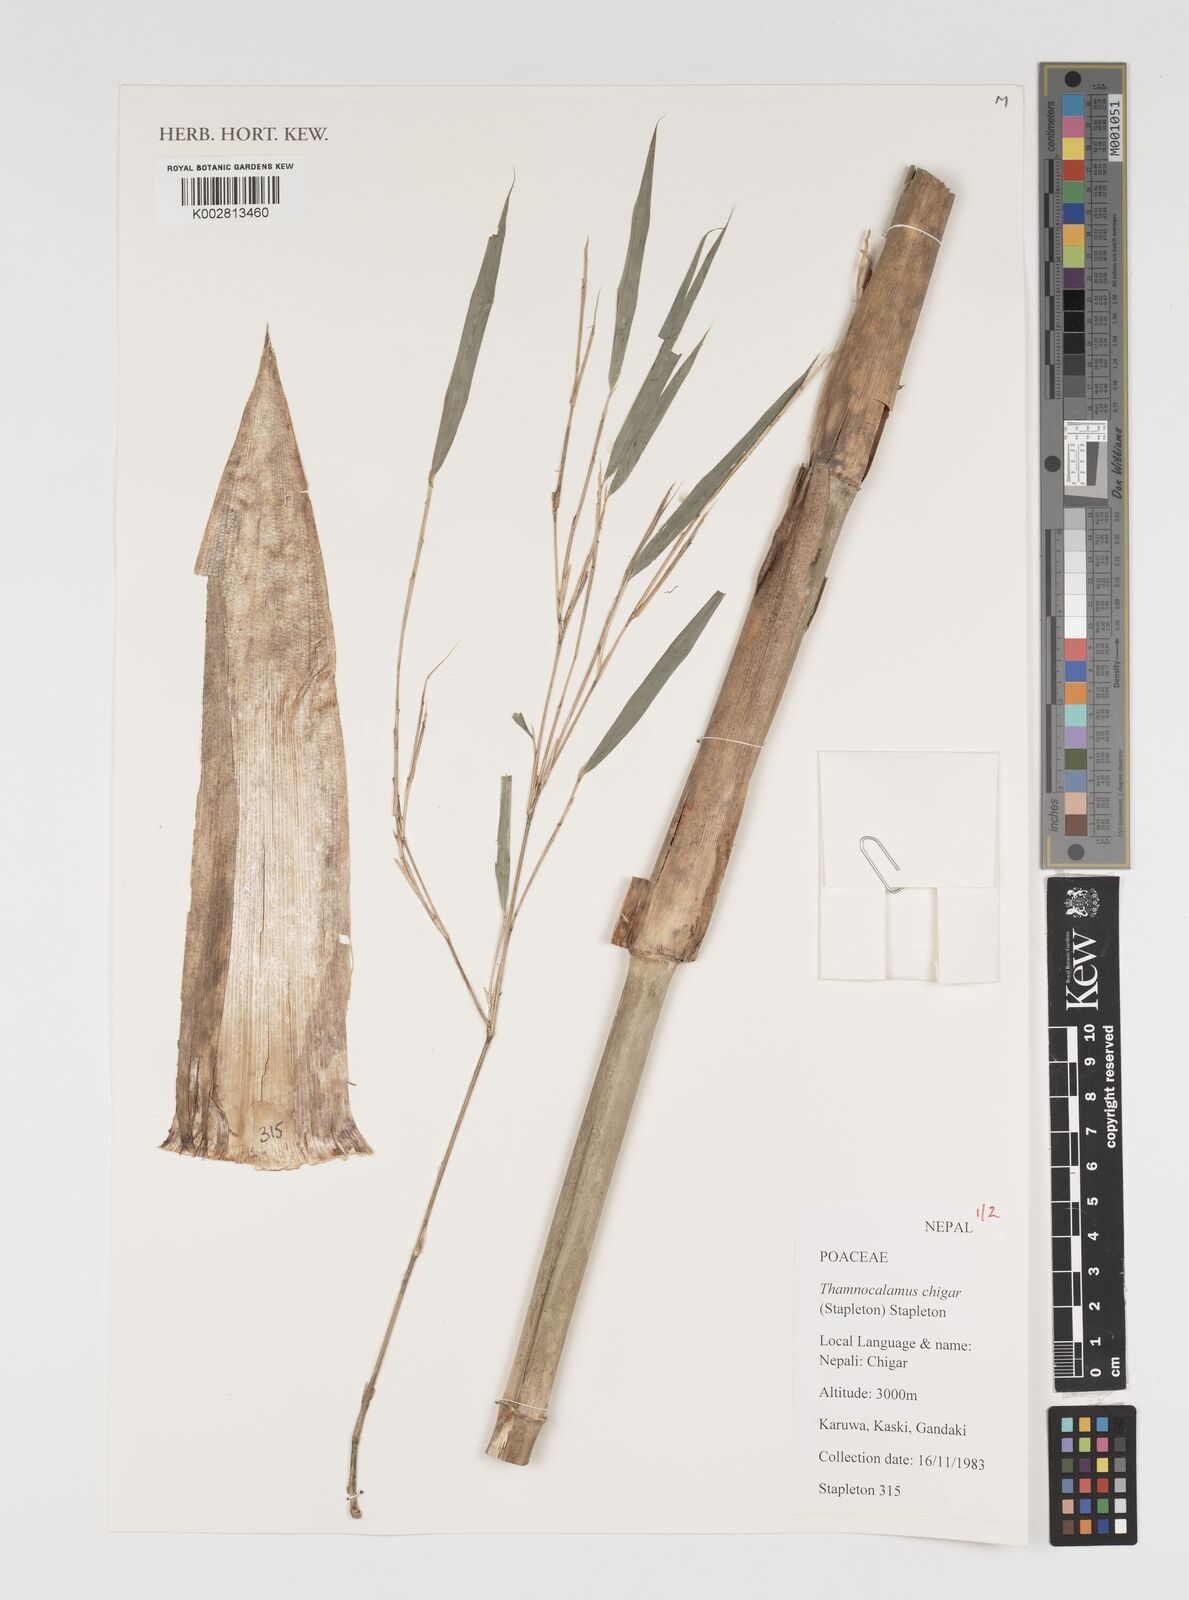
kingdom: Plantae
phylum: Tracheophyta
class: Liliopsida
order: Poales
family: Poaceae
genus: Thamnocalamus
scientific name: Thamnocalamus chigar
